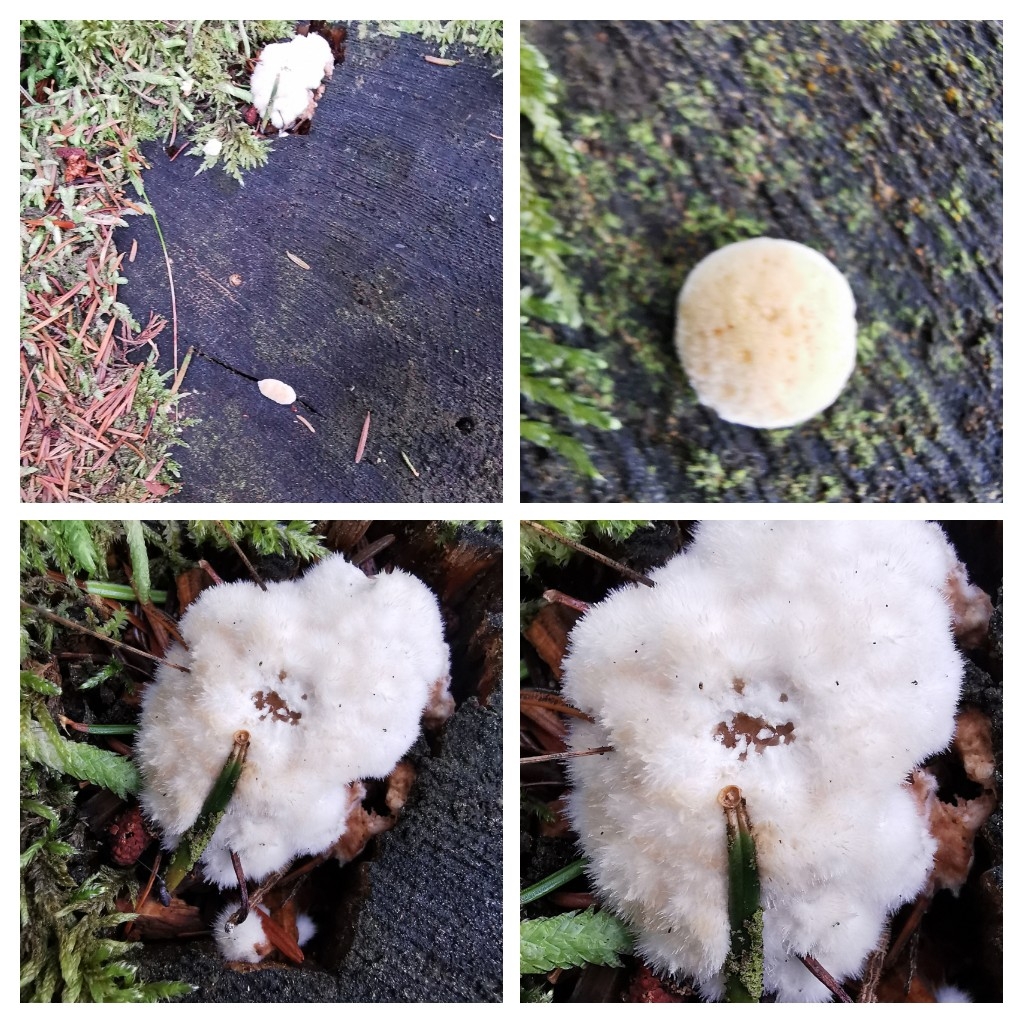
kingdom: Fungi
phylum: Basidiomycota
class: Agaricomycetes
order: Polyporales
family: Dacryobolaceae
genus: Postia
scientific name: Postia ptychogaster
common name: støvende kødporesvamp
